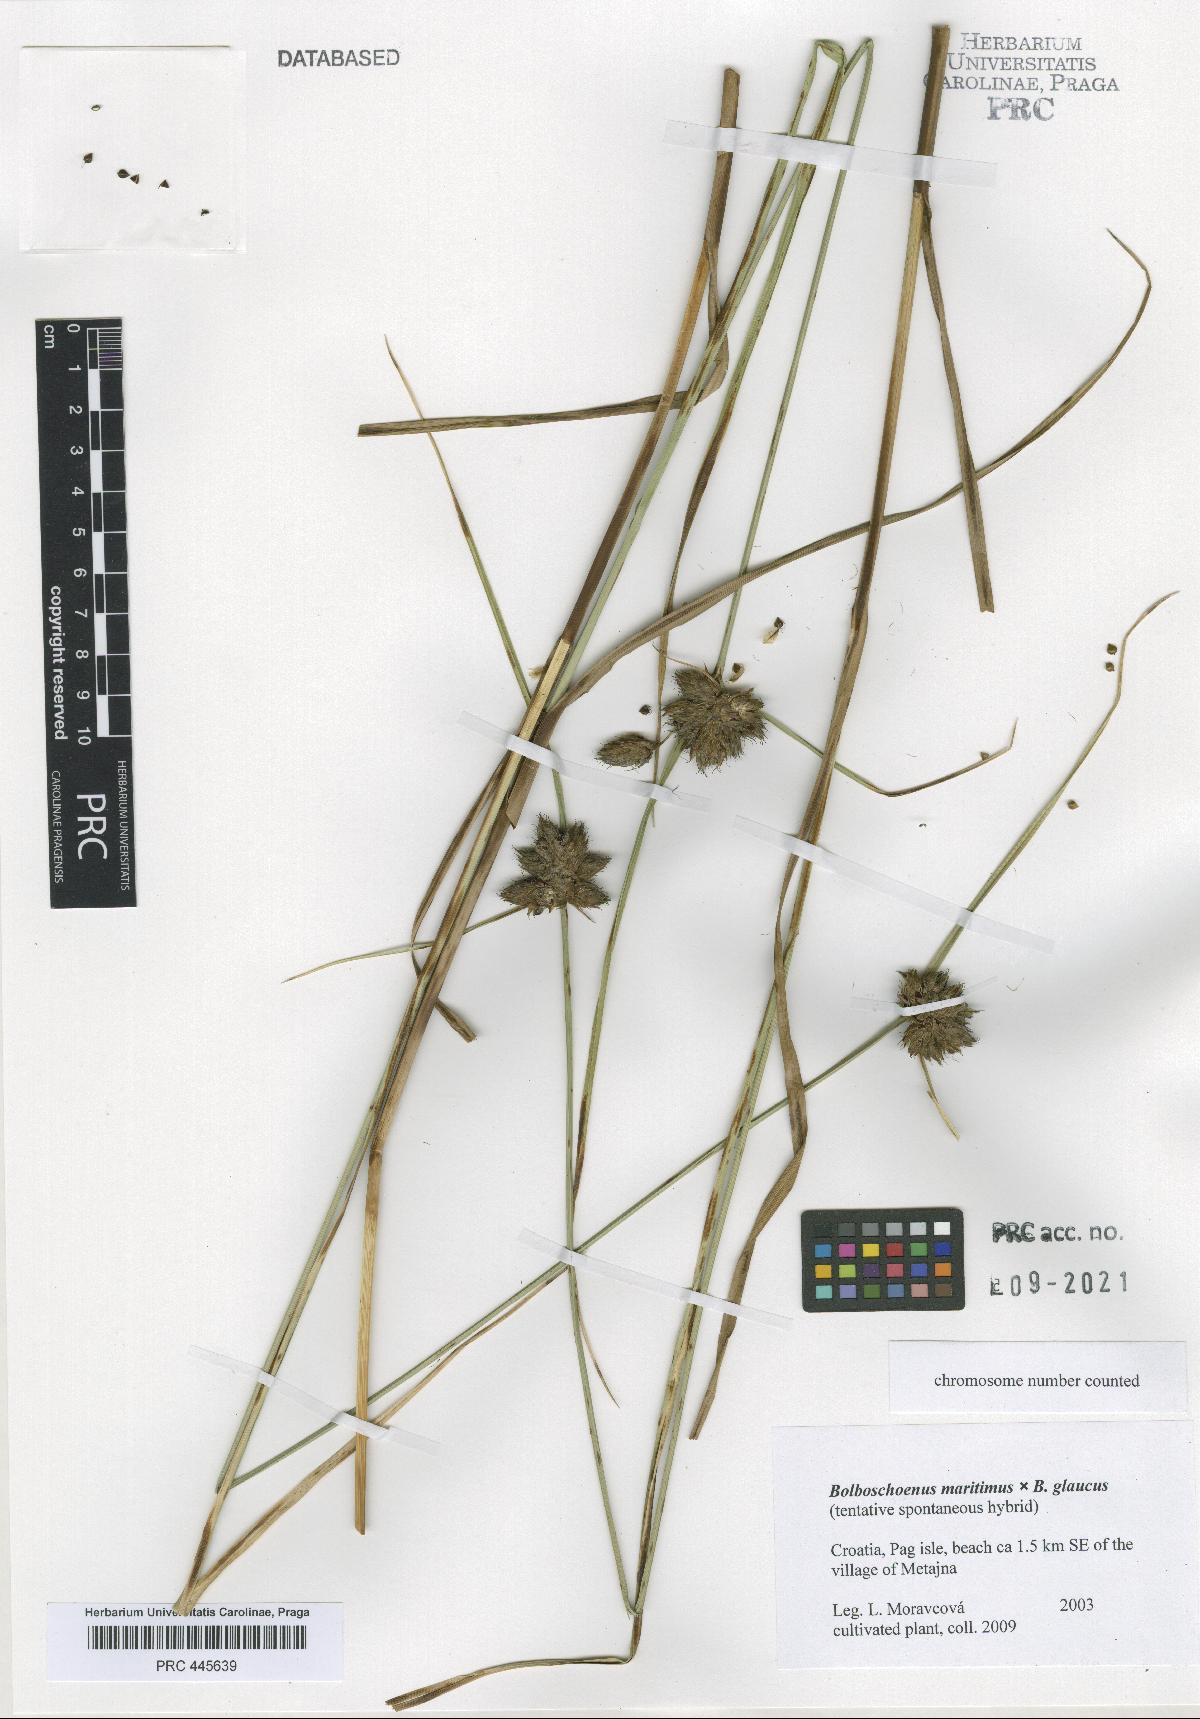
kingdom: Plantae
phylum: Tracheophyta
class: Liliopsida
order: Poales
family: Cyperaceae
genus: Bolboschoenus
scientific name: Bolboschoenus
